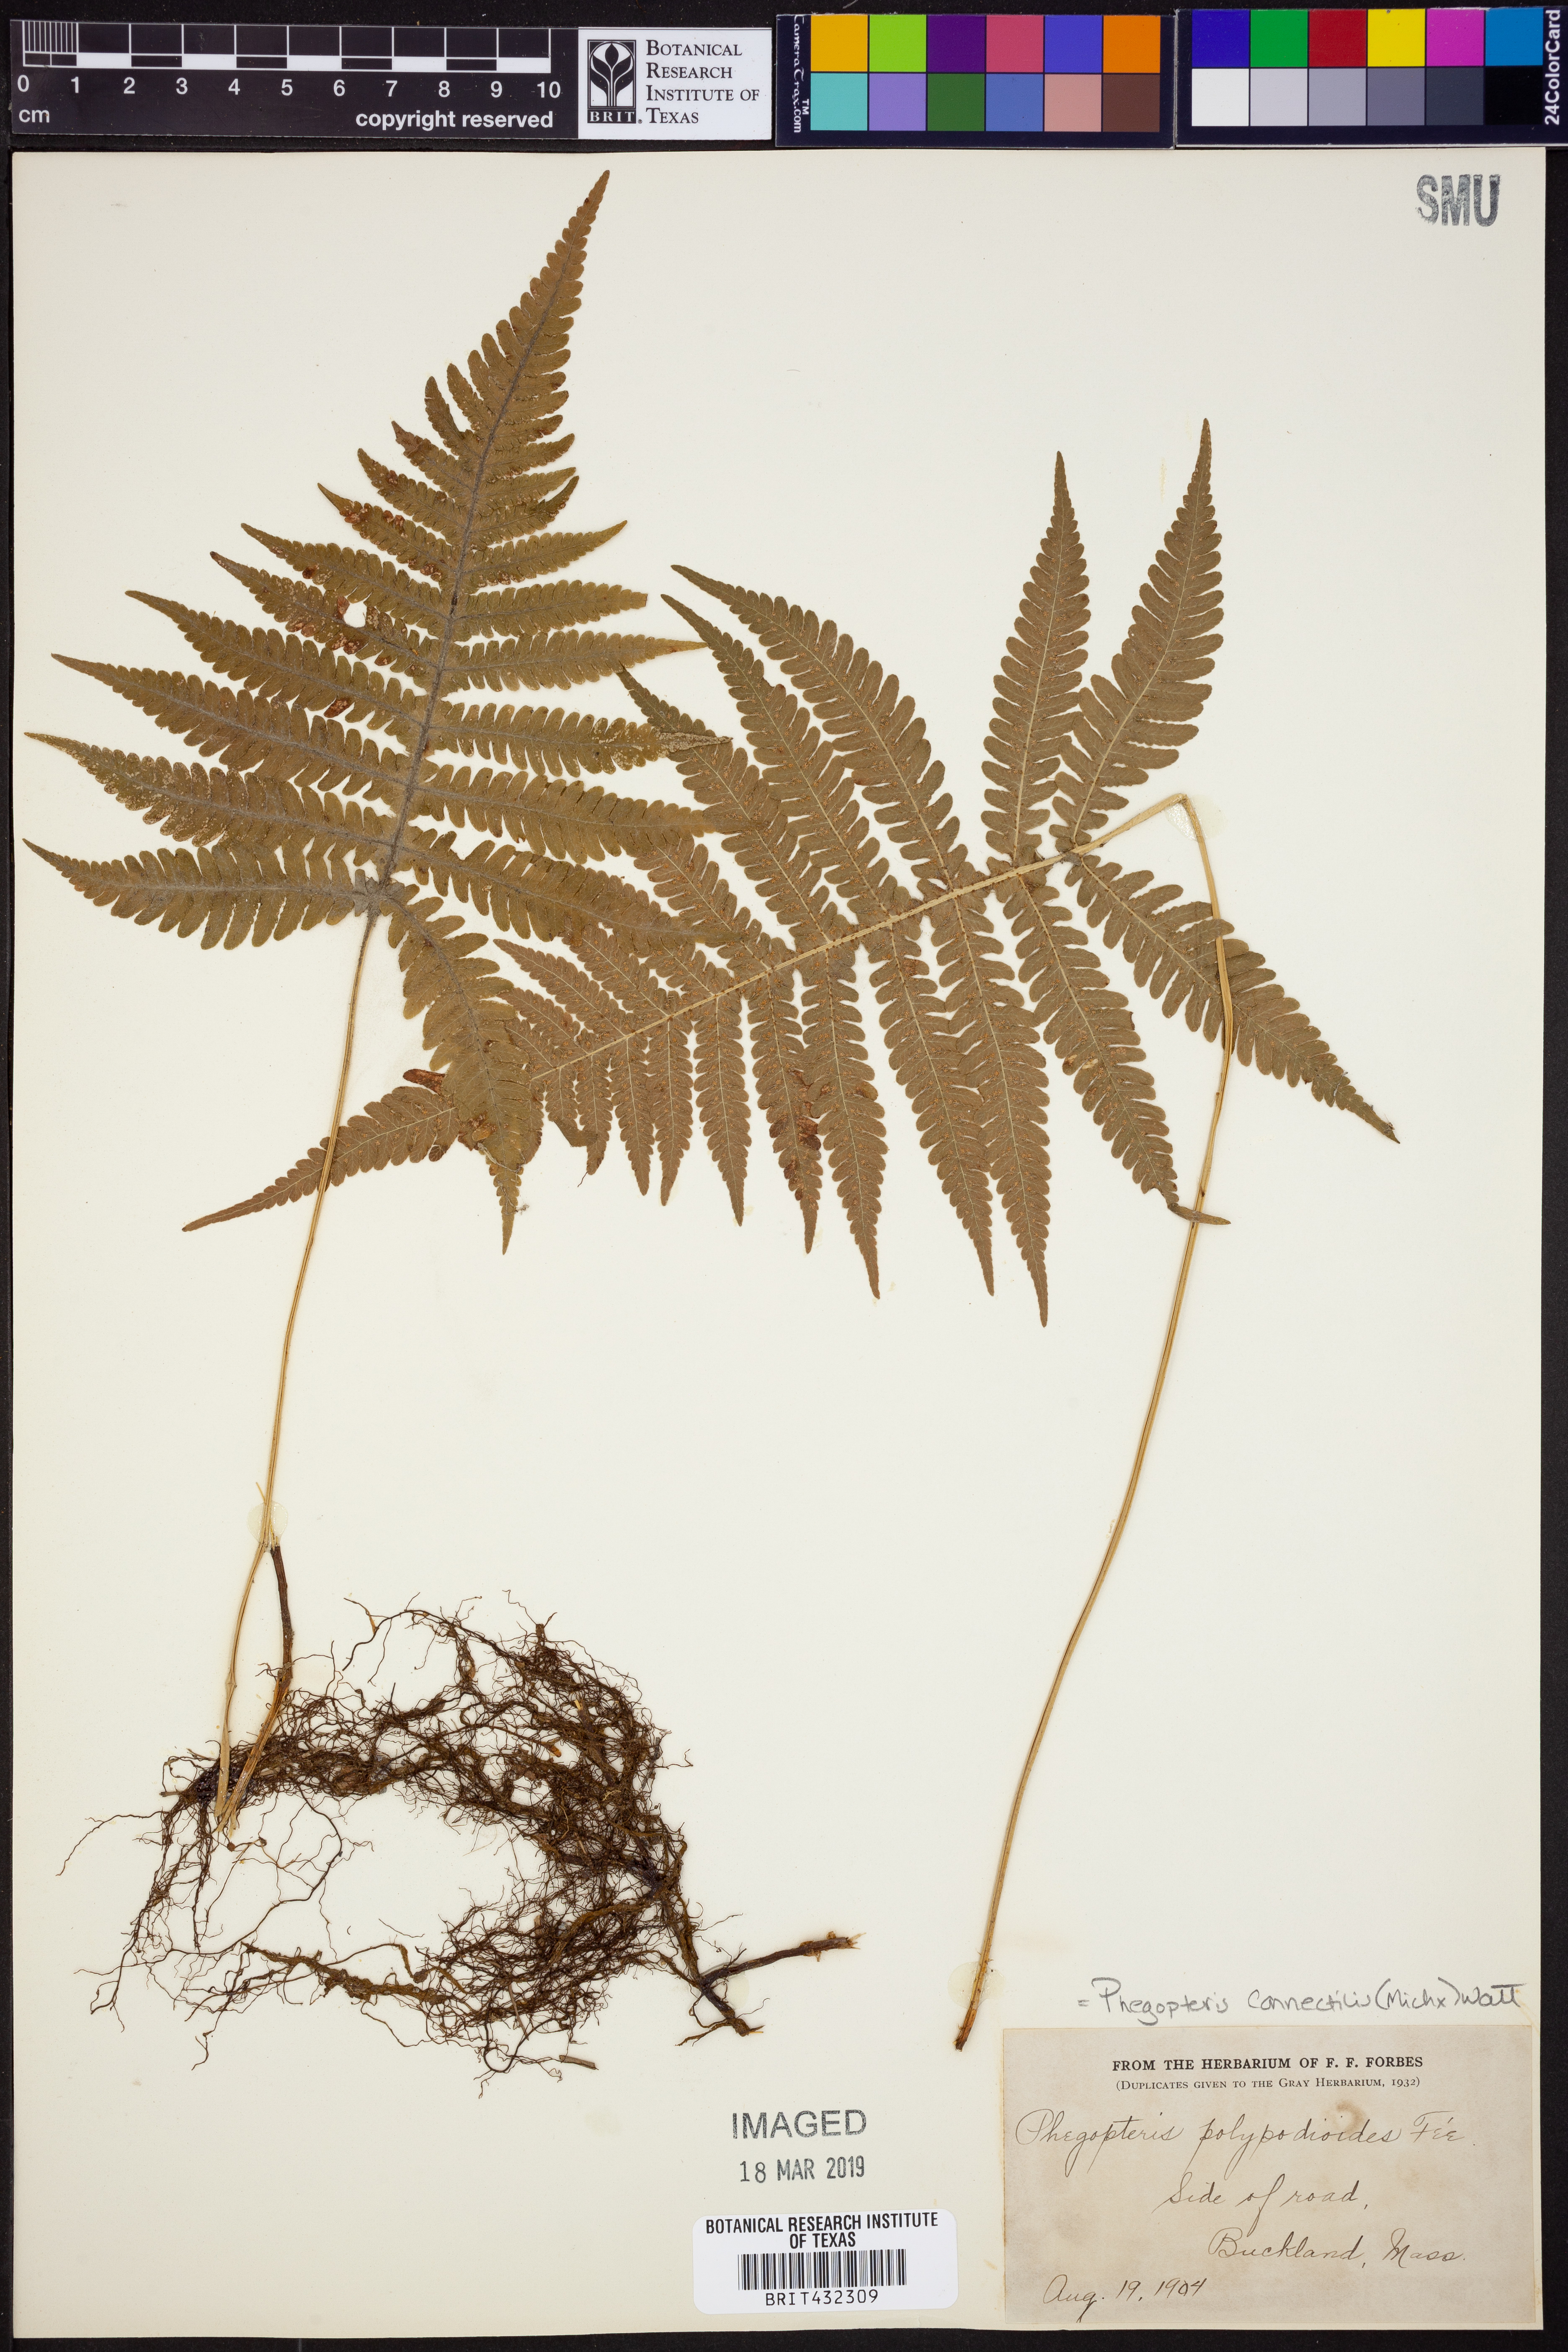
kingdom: Plantae
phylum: Tracheophyta
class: Polypodiopsida
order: Polypodiales
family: Thelypteridaceae
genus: Phegopteris
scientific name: Phegopteris connectilis
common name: Beech fern
